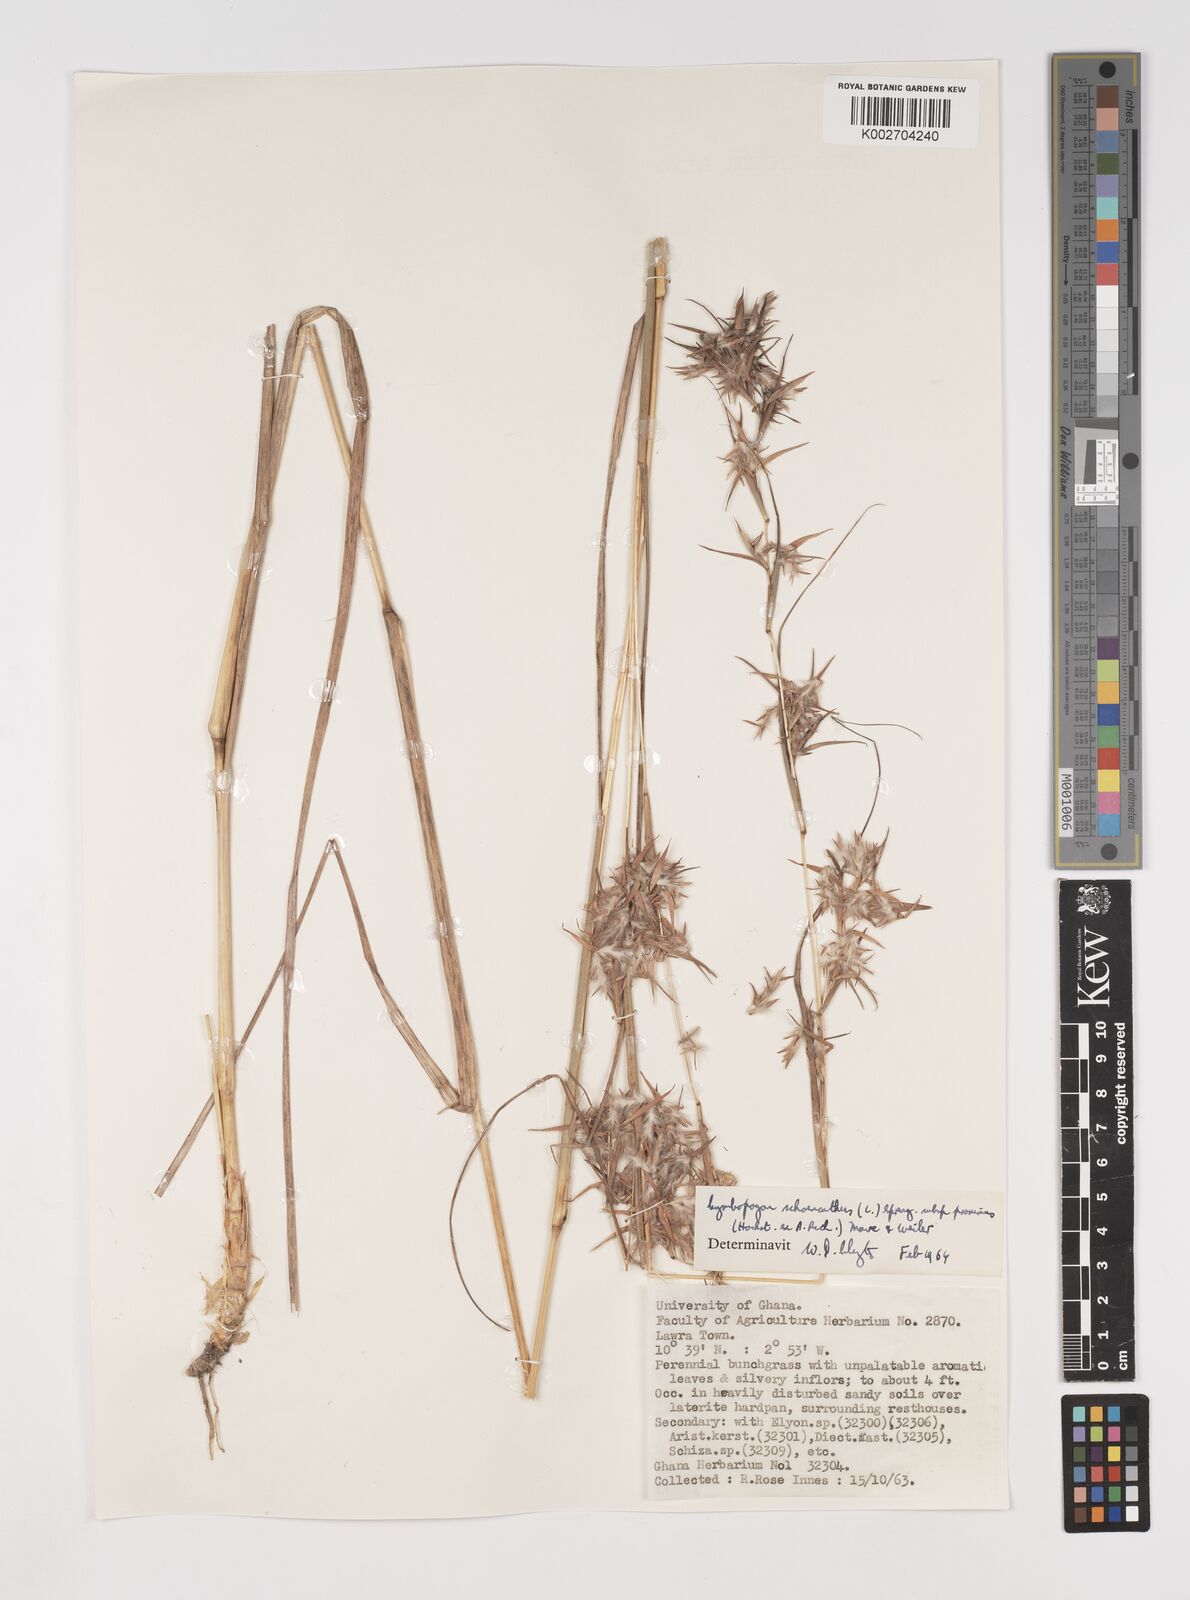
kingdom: Plantae
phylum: Tracheophyta
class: Liliopsida
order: Poales
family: Poaceae
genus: Cymbopogon
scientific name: Cymbopogon schoenanthus
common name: Geranium grass
